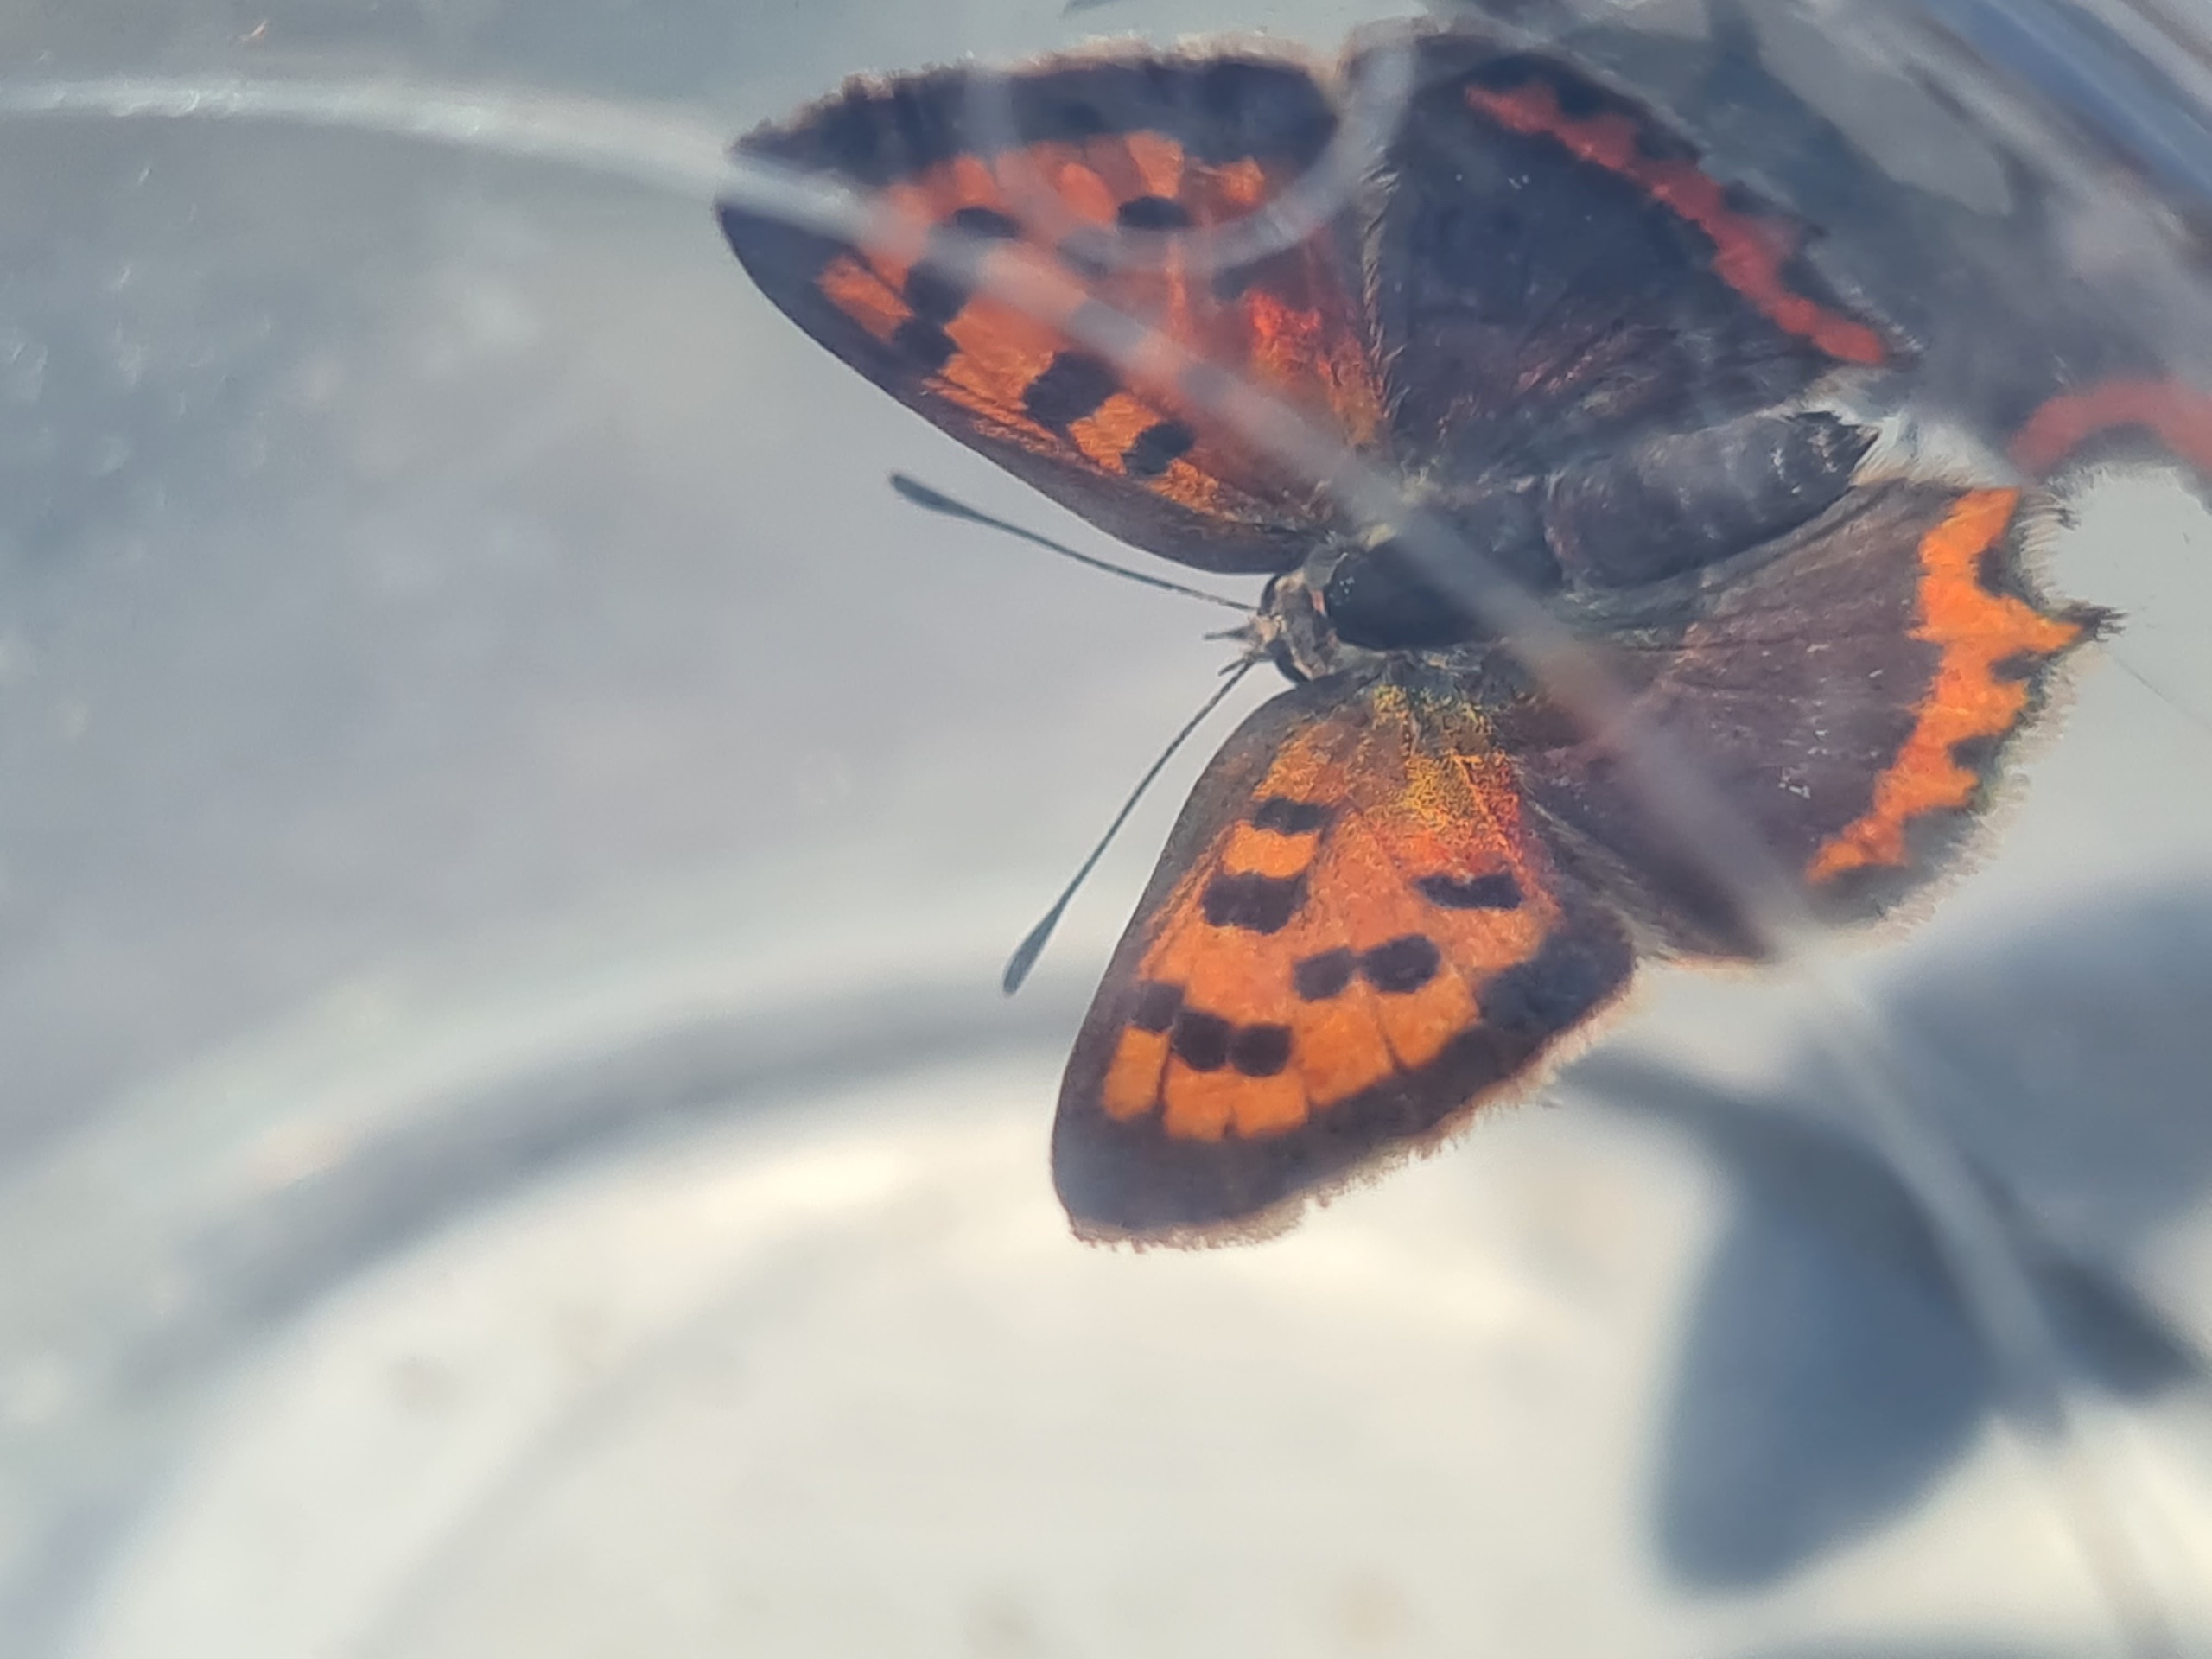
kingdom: Animalia
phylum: Arthropoda
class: Insecta
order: Lepidoptera
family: Lycaenidae
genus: Lycaena
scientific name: Lycaena phlaeas
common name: Lille ildfugl
